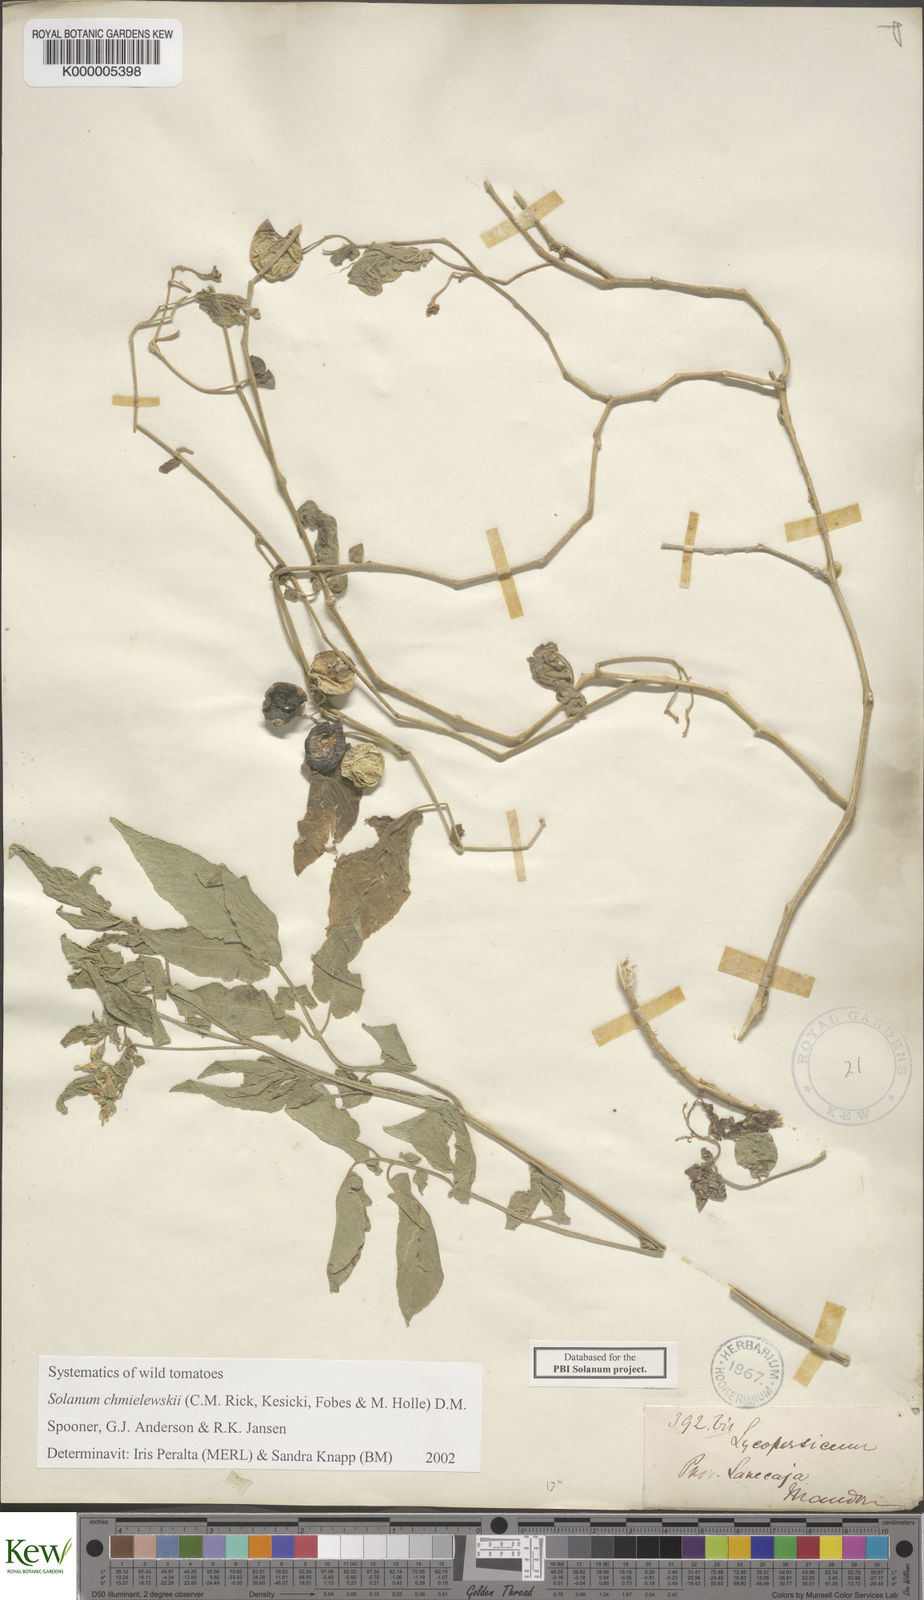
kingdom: Plantae
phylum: Tracheophyta
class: Magnoliopsida
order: Solanales
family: Solanaceae
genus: Solanum
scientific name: Solanum chmielewskii
